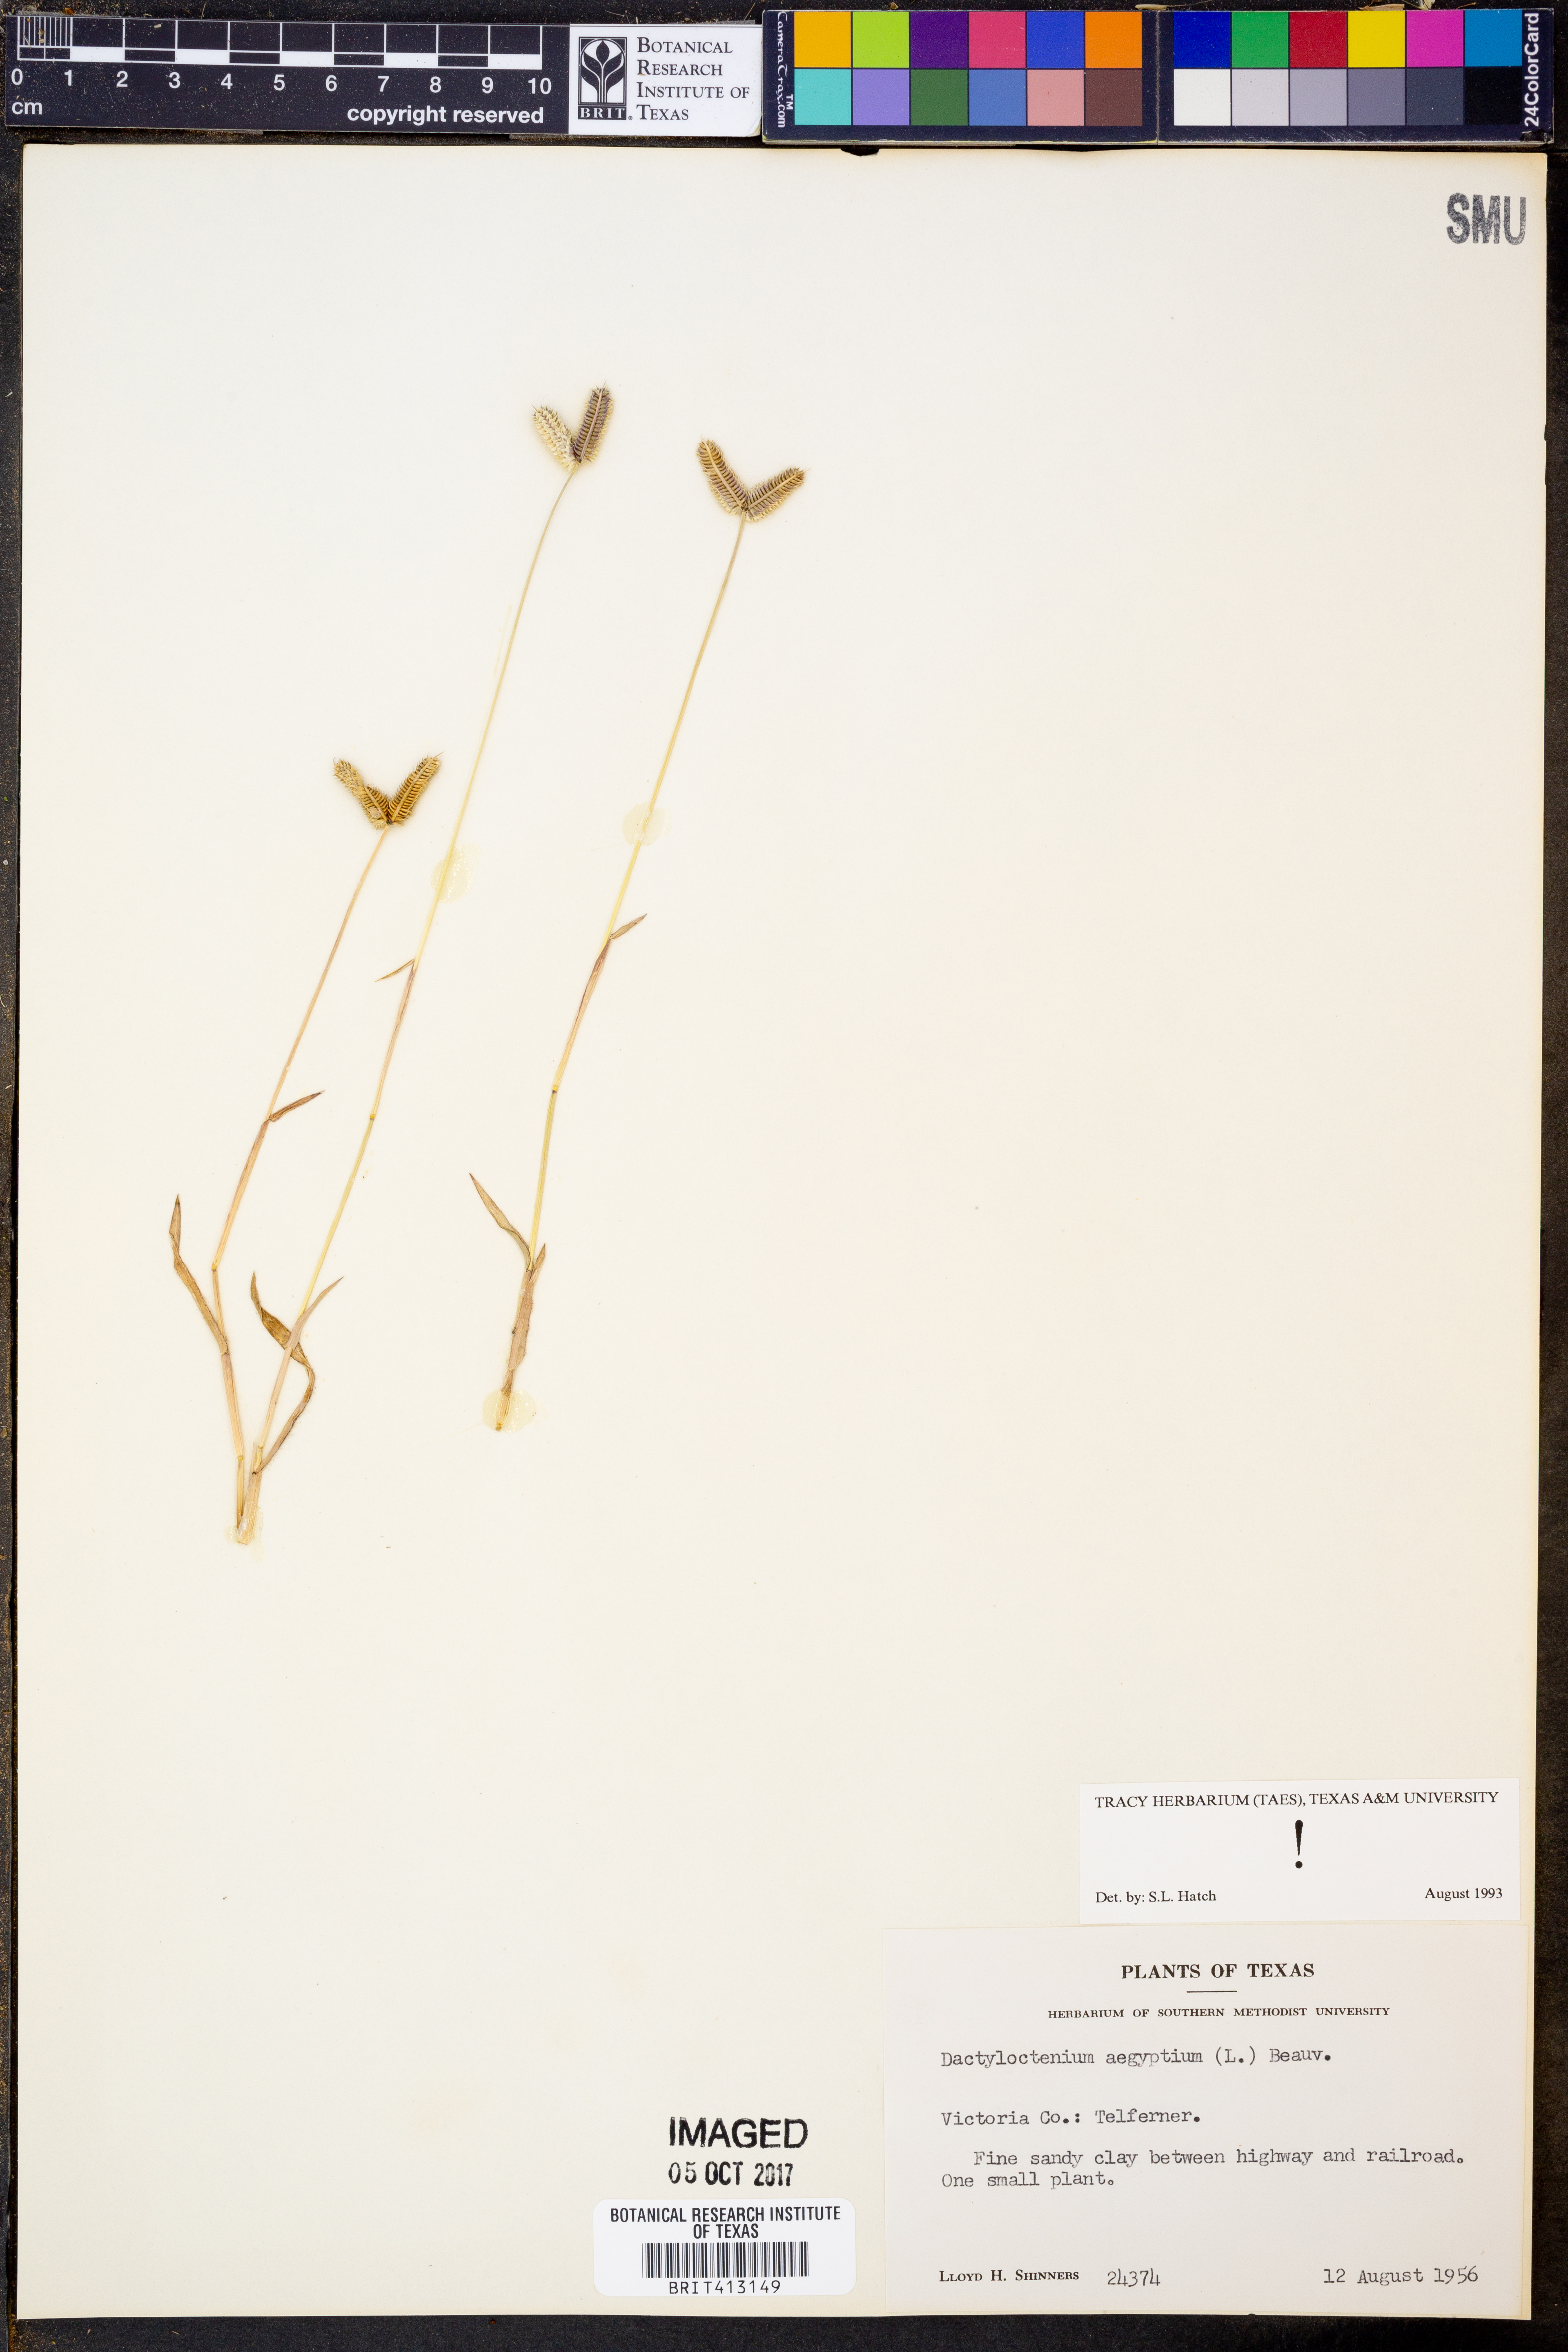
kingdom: Plantae
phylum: Tracheophyta
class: Liliopsida
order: Poales
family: Poaceae
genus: Dactyloctenium
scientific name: Dactyloctenium aegyptium
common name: Egyptian grass
